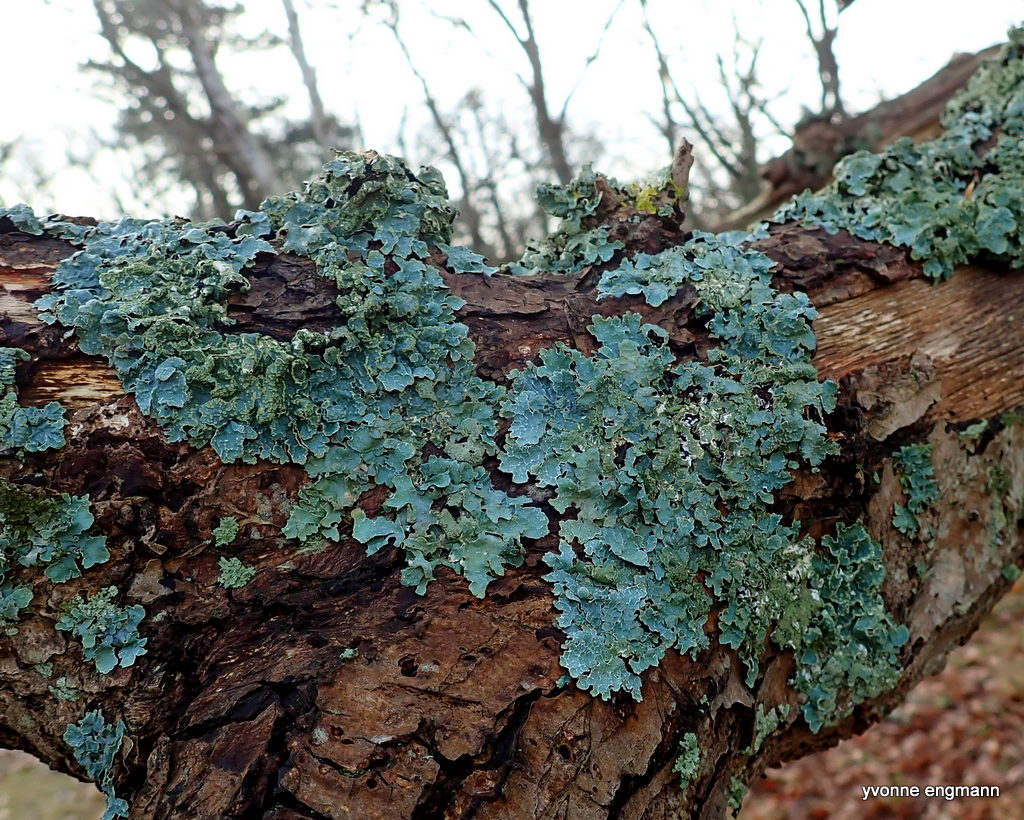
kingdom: Fungi
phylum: Ascomycota
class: Lecanoromycetes
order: Lecanorales
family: Parmeliaceae
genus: Parmelia
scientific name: Parmelia sulcata
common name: rynket skållav
